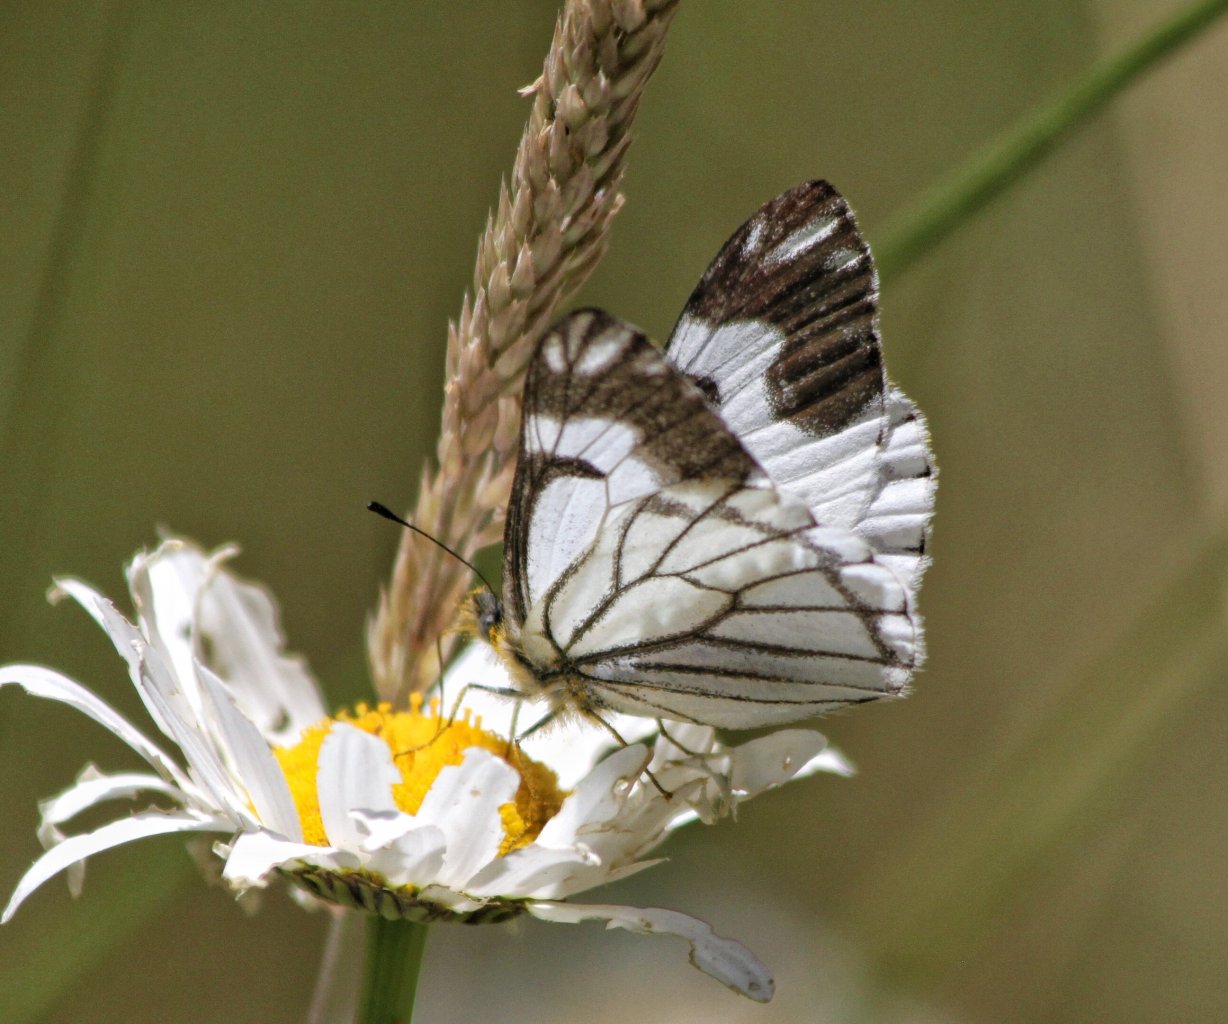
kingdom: Animalia
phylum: Arthropoda
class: Insecta
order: Lepidoptera
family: Pieridae
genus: Neophasia
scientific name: Neophasia menapia
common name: Pine White
